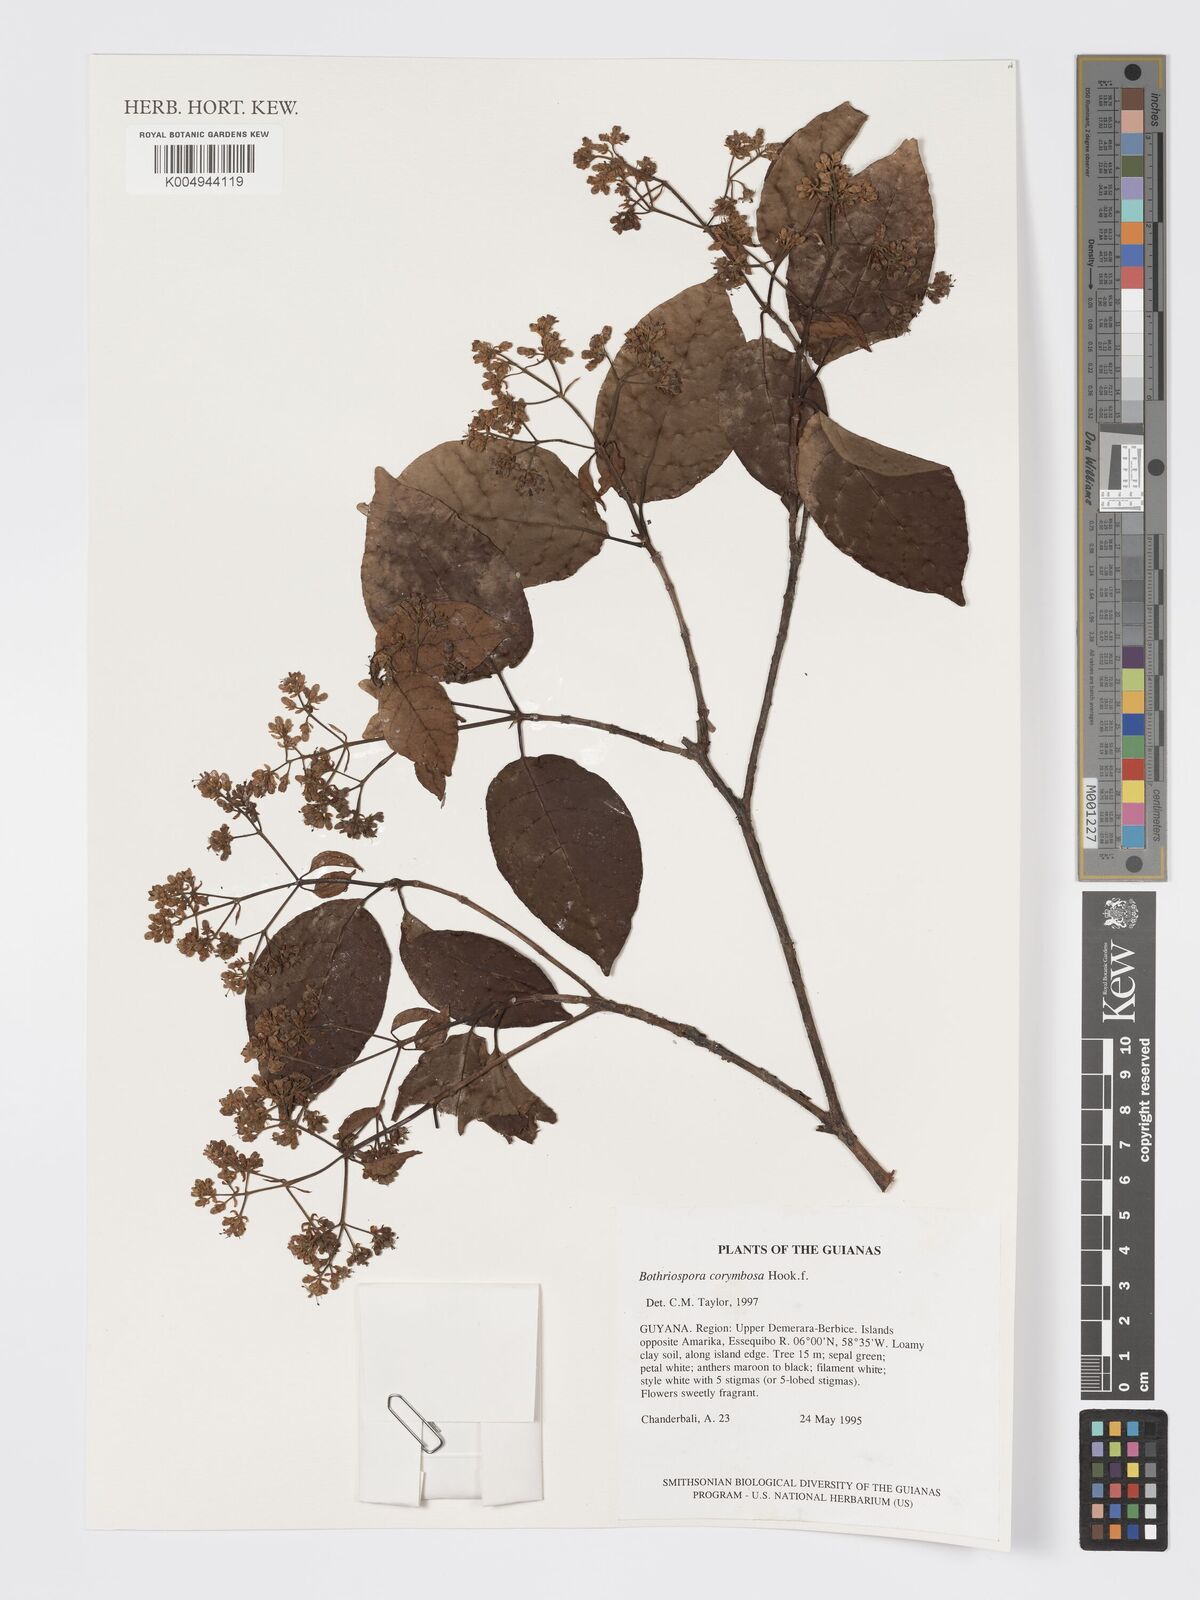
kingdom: Plantae
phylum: Tracheophyta
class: Magnoliopsida
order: Gentianales
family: Rubiaceae
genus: Bothriospora
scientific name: Bothriospora corymbosa
